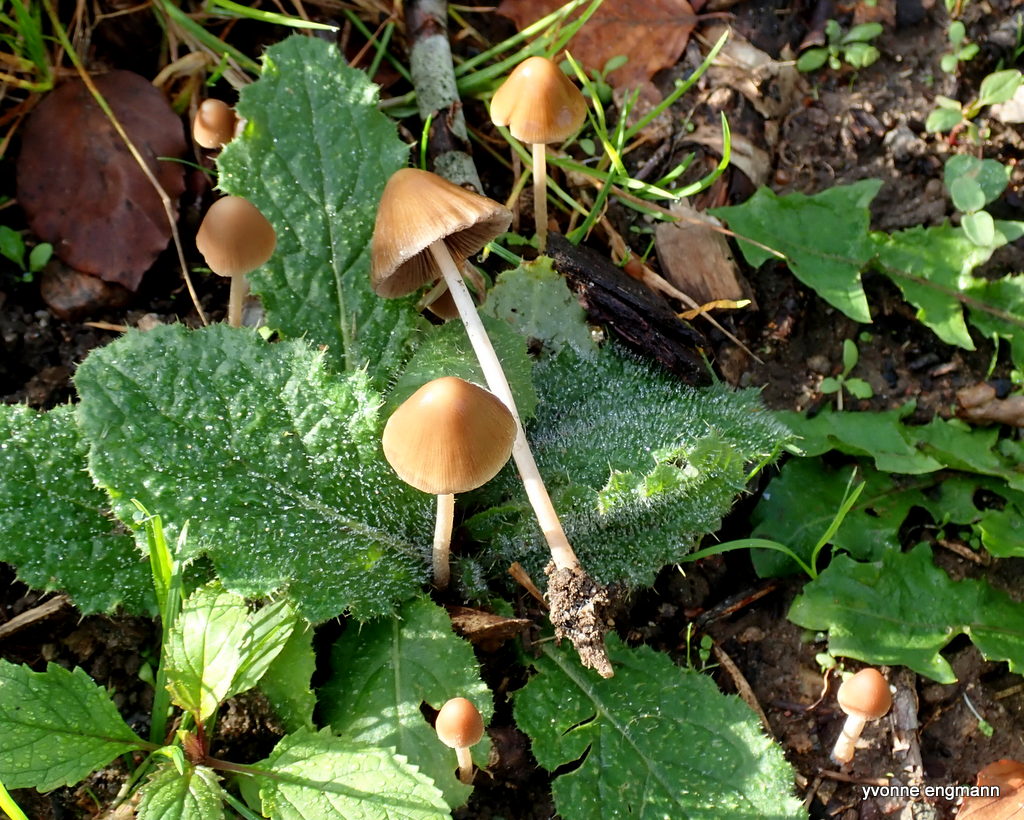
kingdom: Fungi
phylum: Basidiomycota
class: Agaricomycetes
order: Agaricales
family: Psathyrellaceae
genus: Psathyrella
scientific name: Psathyrella
